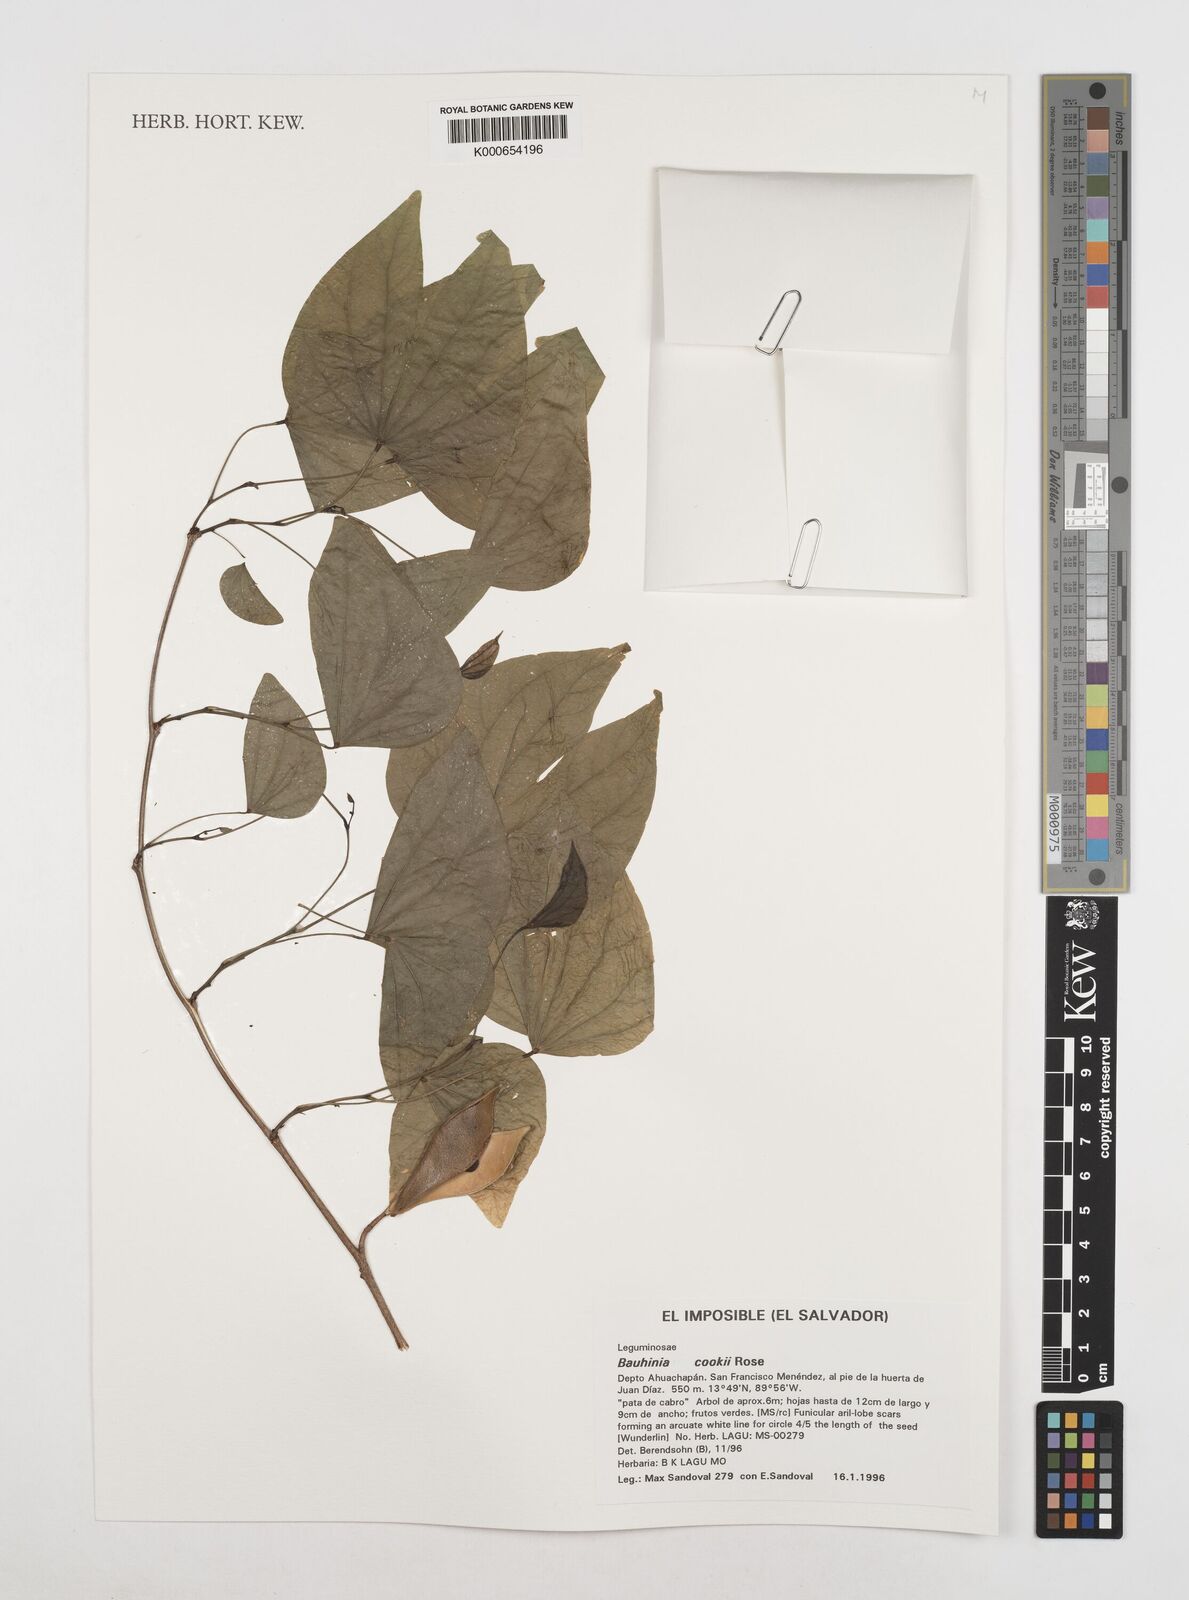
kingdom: Plantae
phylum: Tracheophyta
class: Magnoliopsida
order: Fabales
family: Fabaceae
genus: Bauhinia
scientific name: Bauhinia cookii
